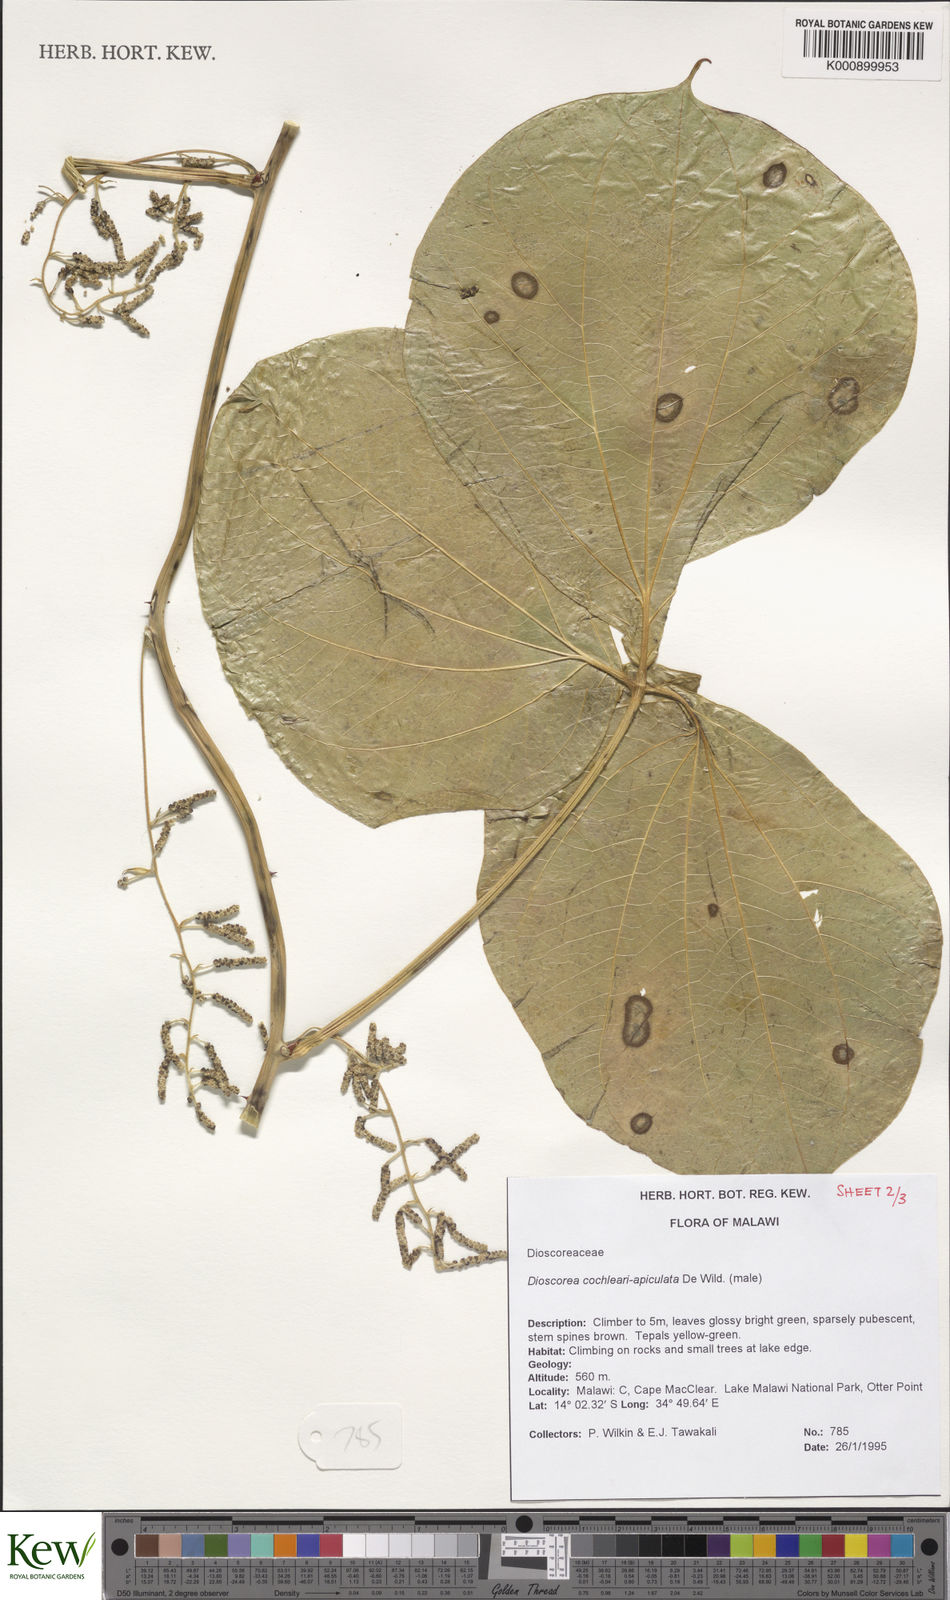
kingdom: Plantae
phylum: Tracheophyta
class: Liliopsida
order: Dioscoreales
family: Dioscoreaceae
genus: Dioscorea
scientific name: Dioscorea cochleariapiculata
